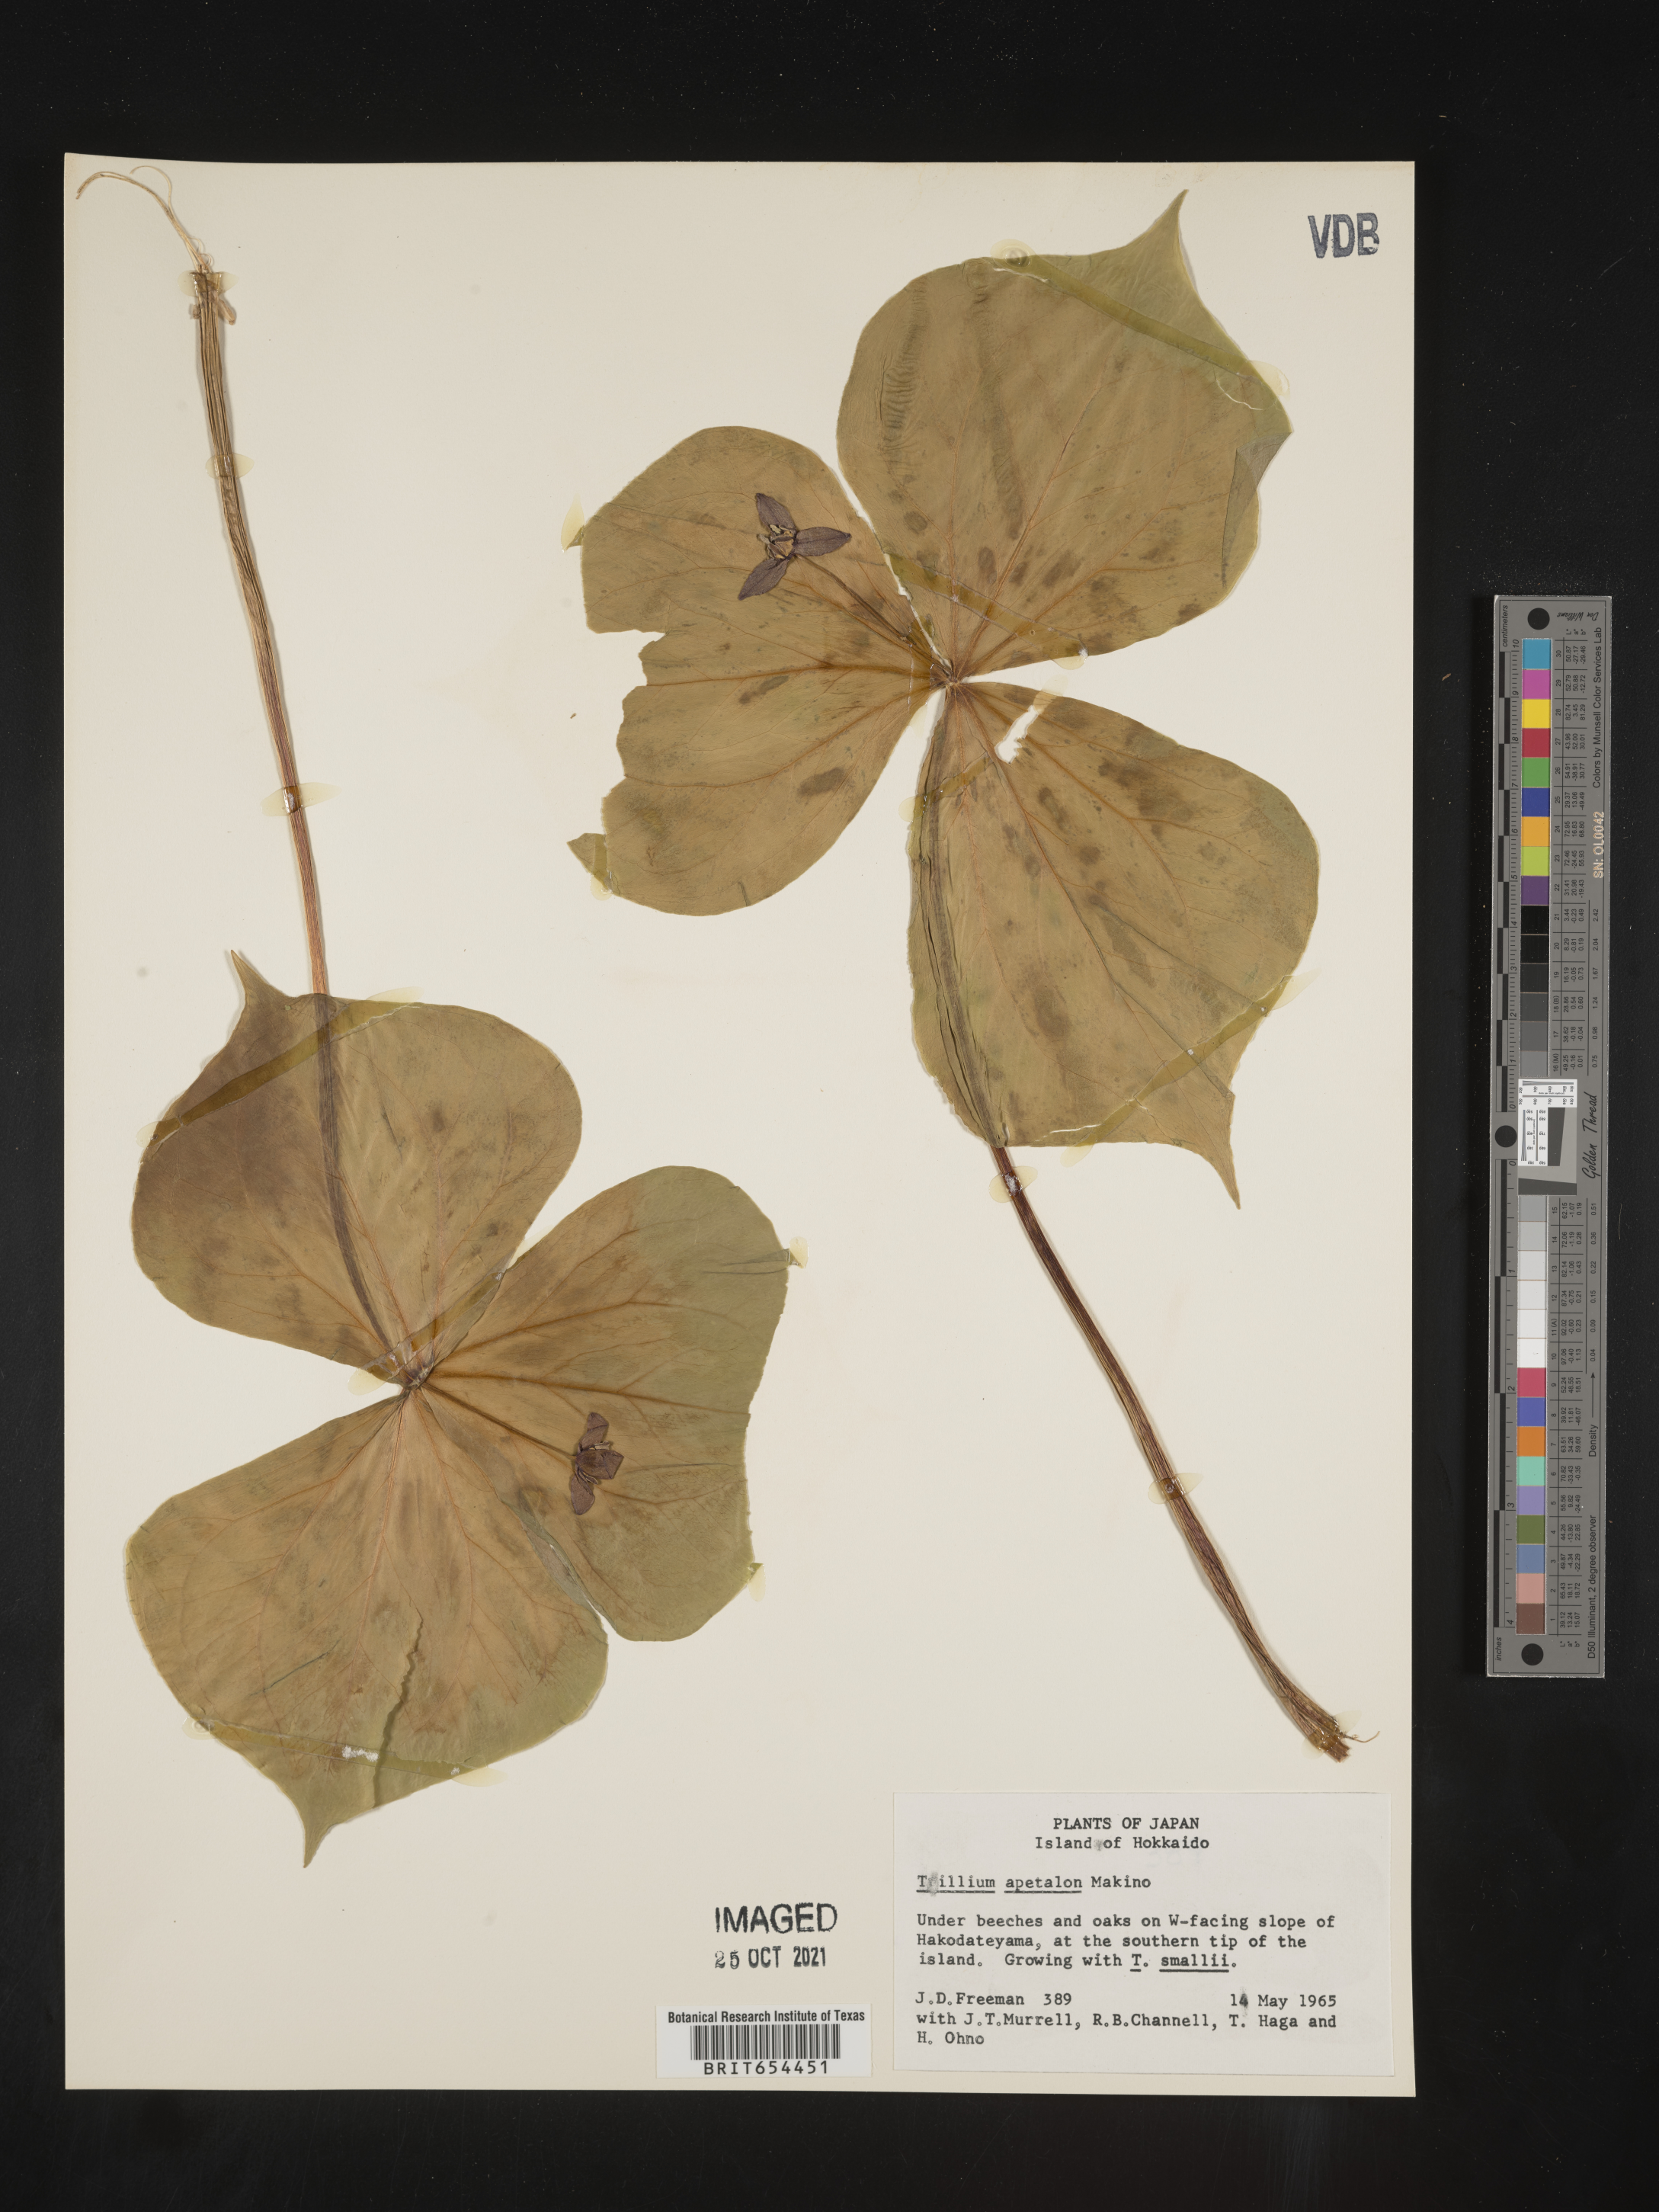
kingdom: Plantae
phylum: Tracheophyta
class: Liliopsida
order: Liliales
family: Melanthiaceae
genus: Trillium
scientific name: Trillium
